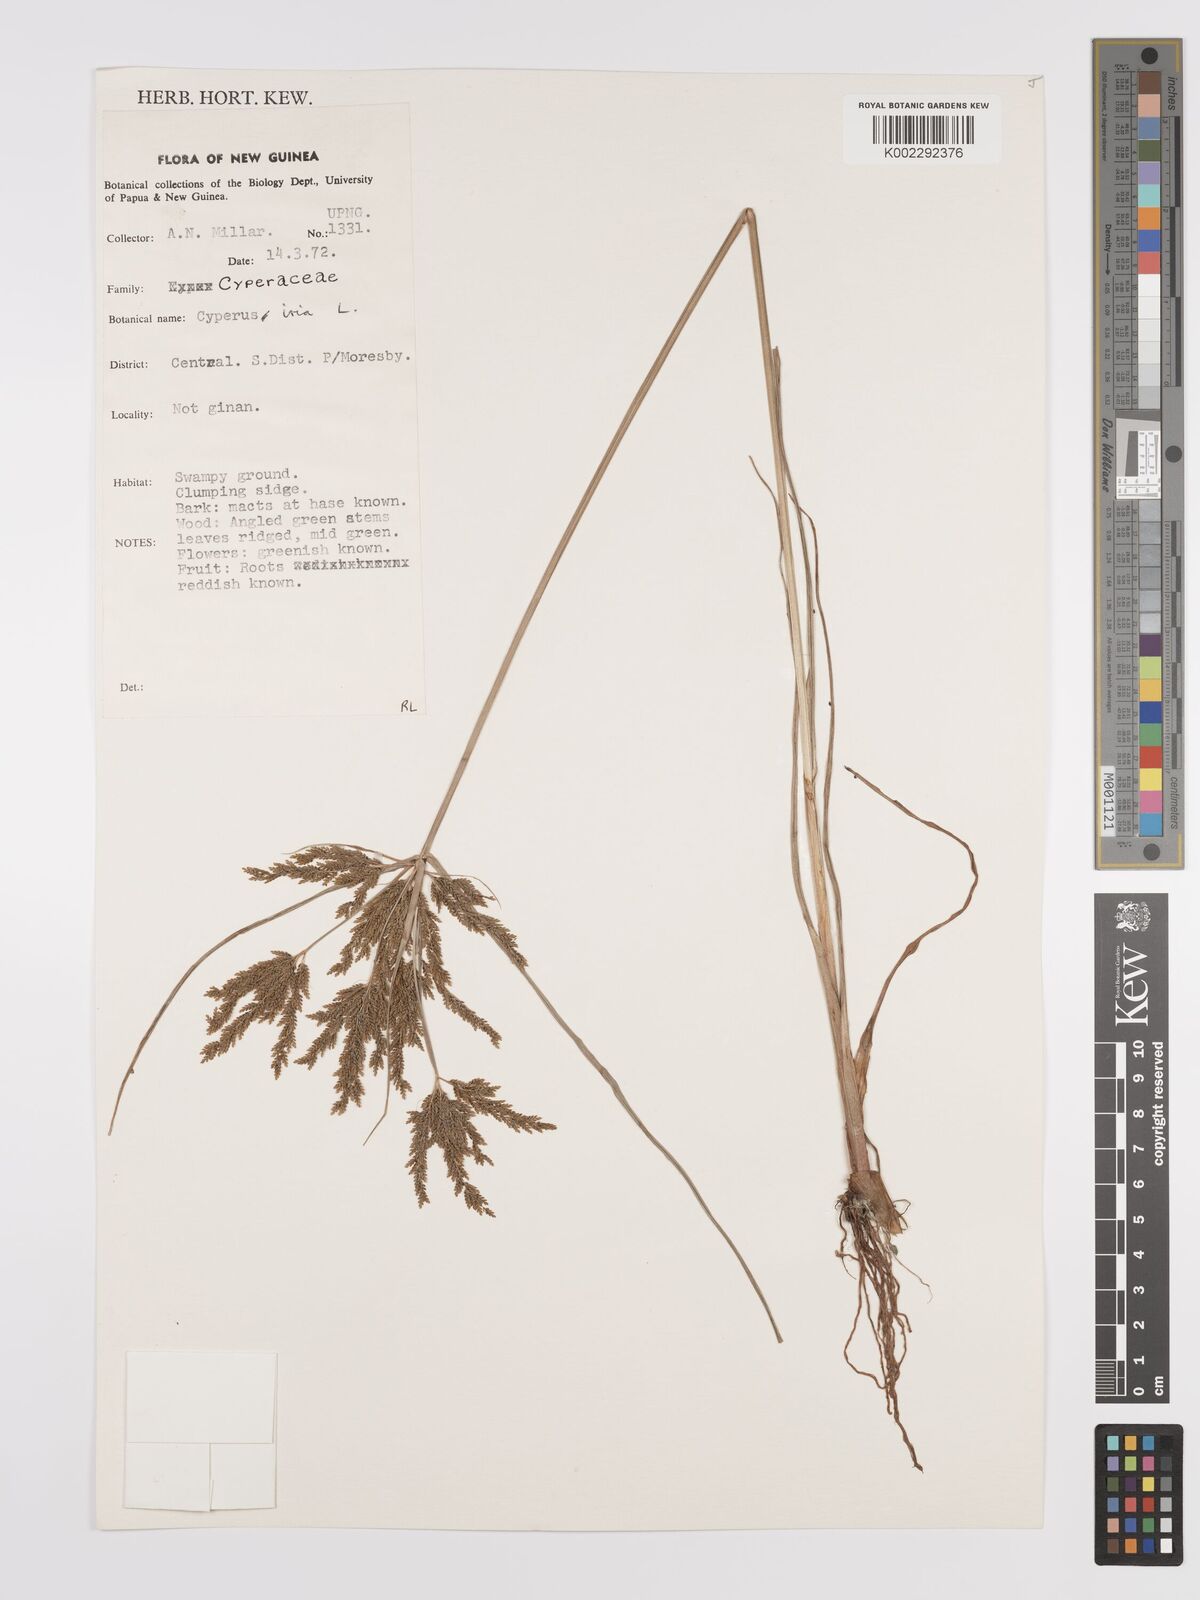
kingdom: Plantae
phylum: Tracheophyta
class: Liliopsida
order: Poales
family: Cyperaceae
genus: Cyperus
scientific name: Cyperus iria
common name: Ricefield flatsedge
